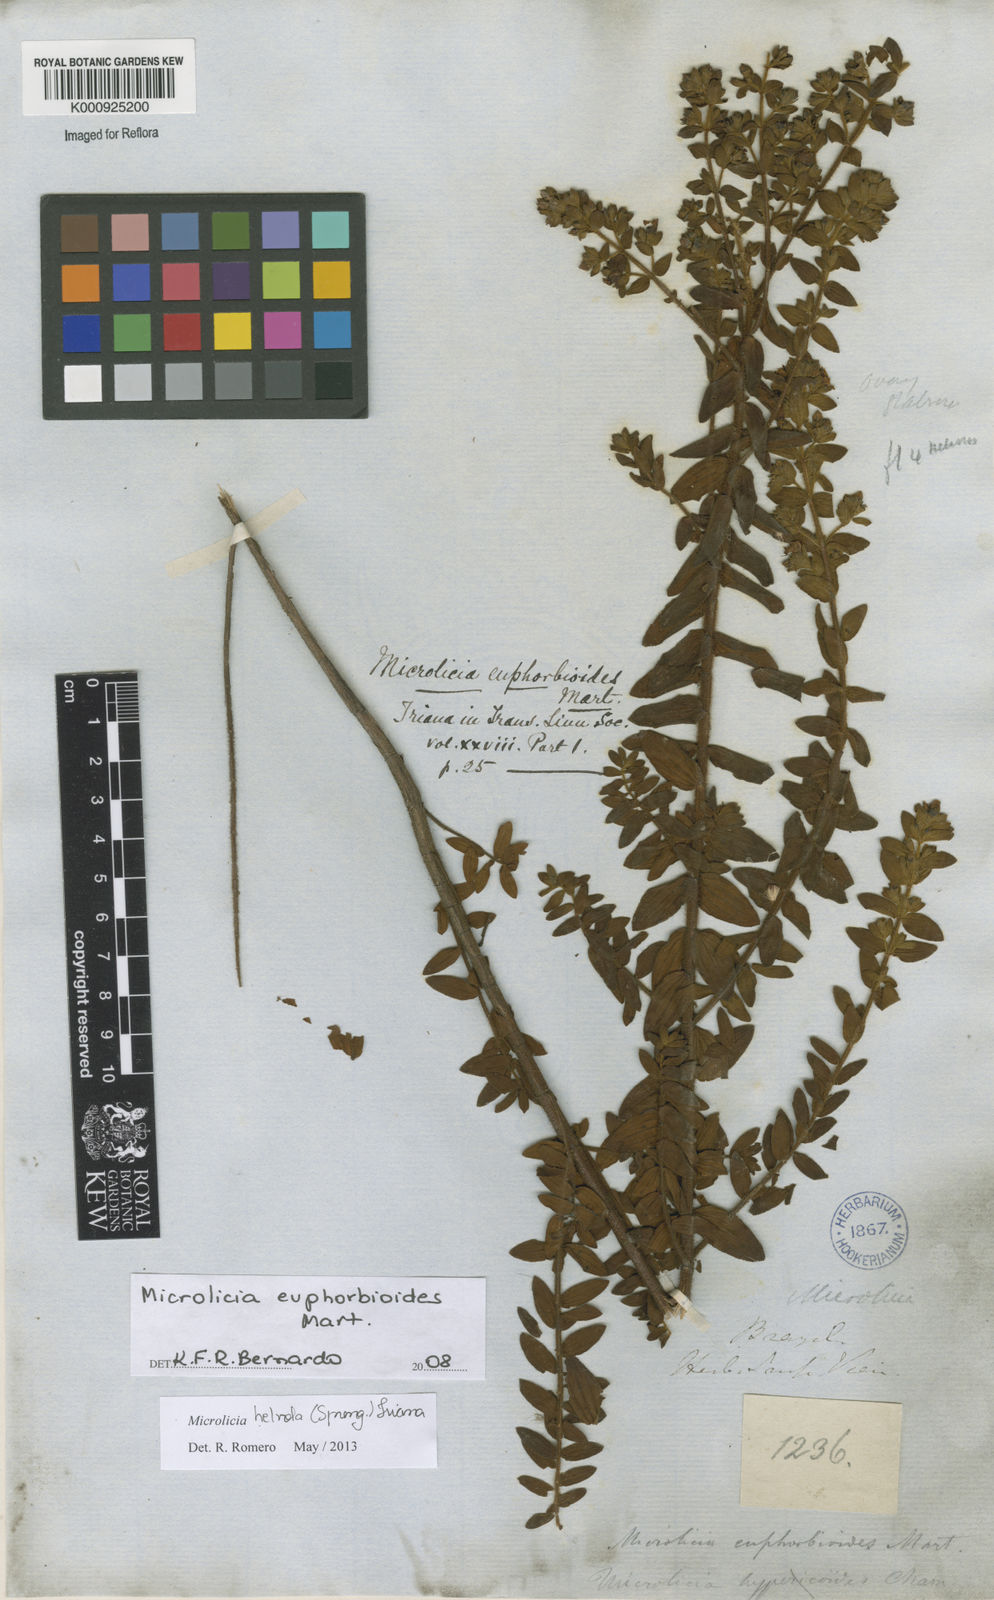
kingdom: Plantae
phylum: Tracheophyta
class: Magnoliopsida
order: Myrtales
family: Melastomataceae
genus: Microlicia
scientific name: Microlicia helvola
